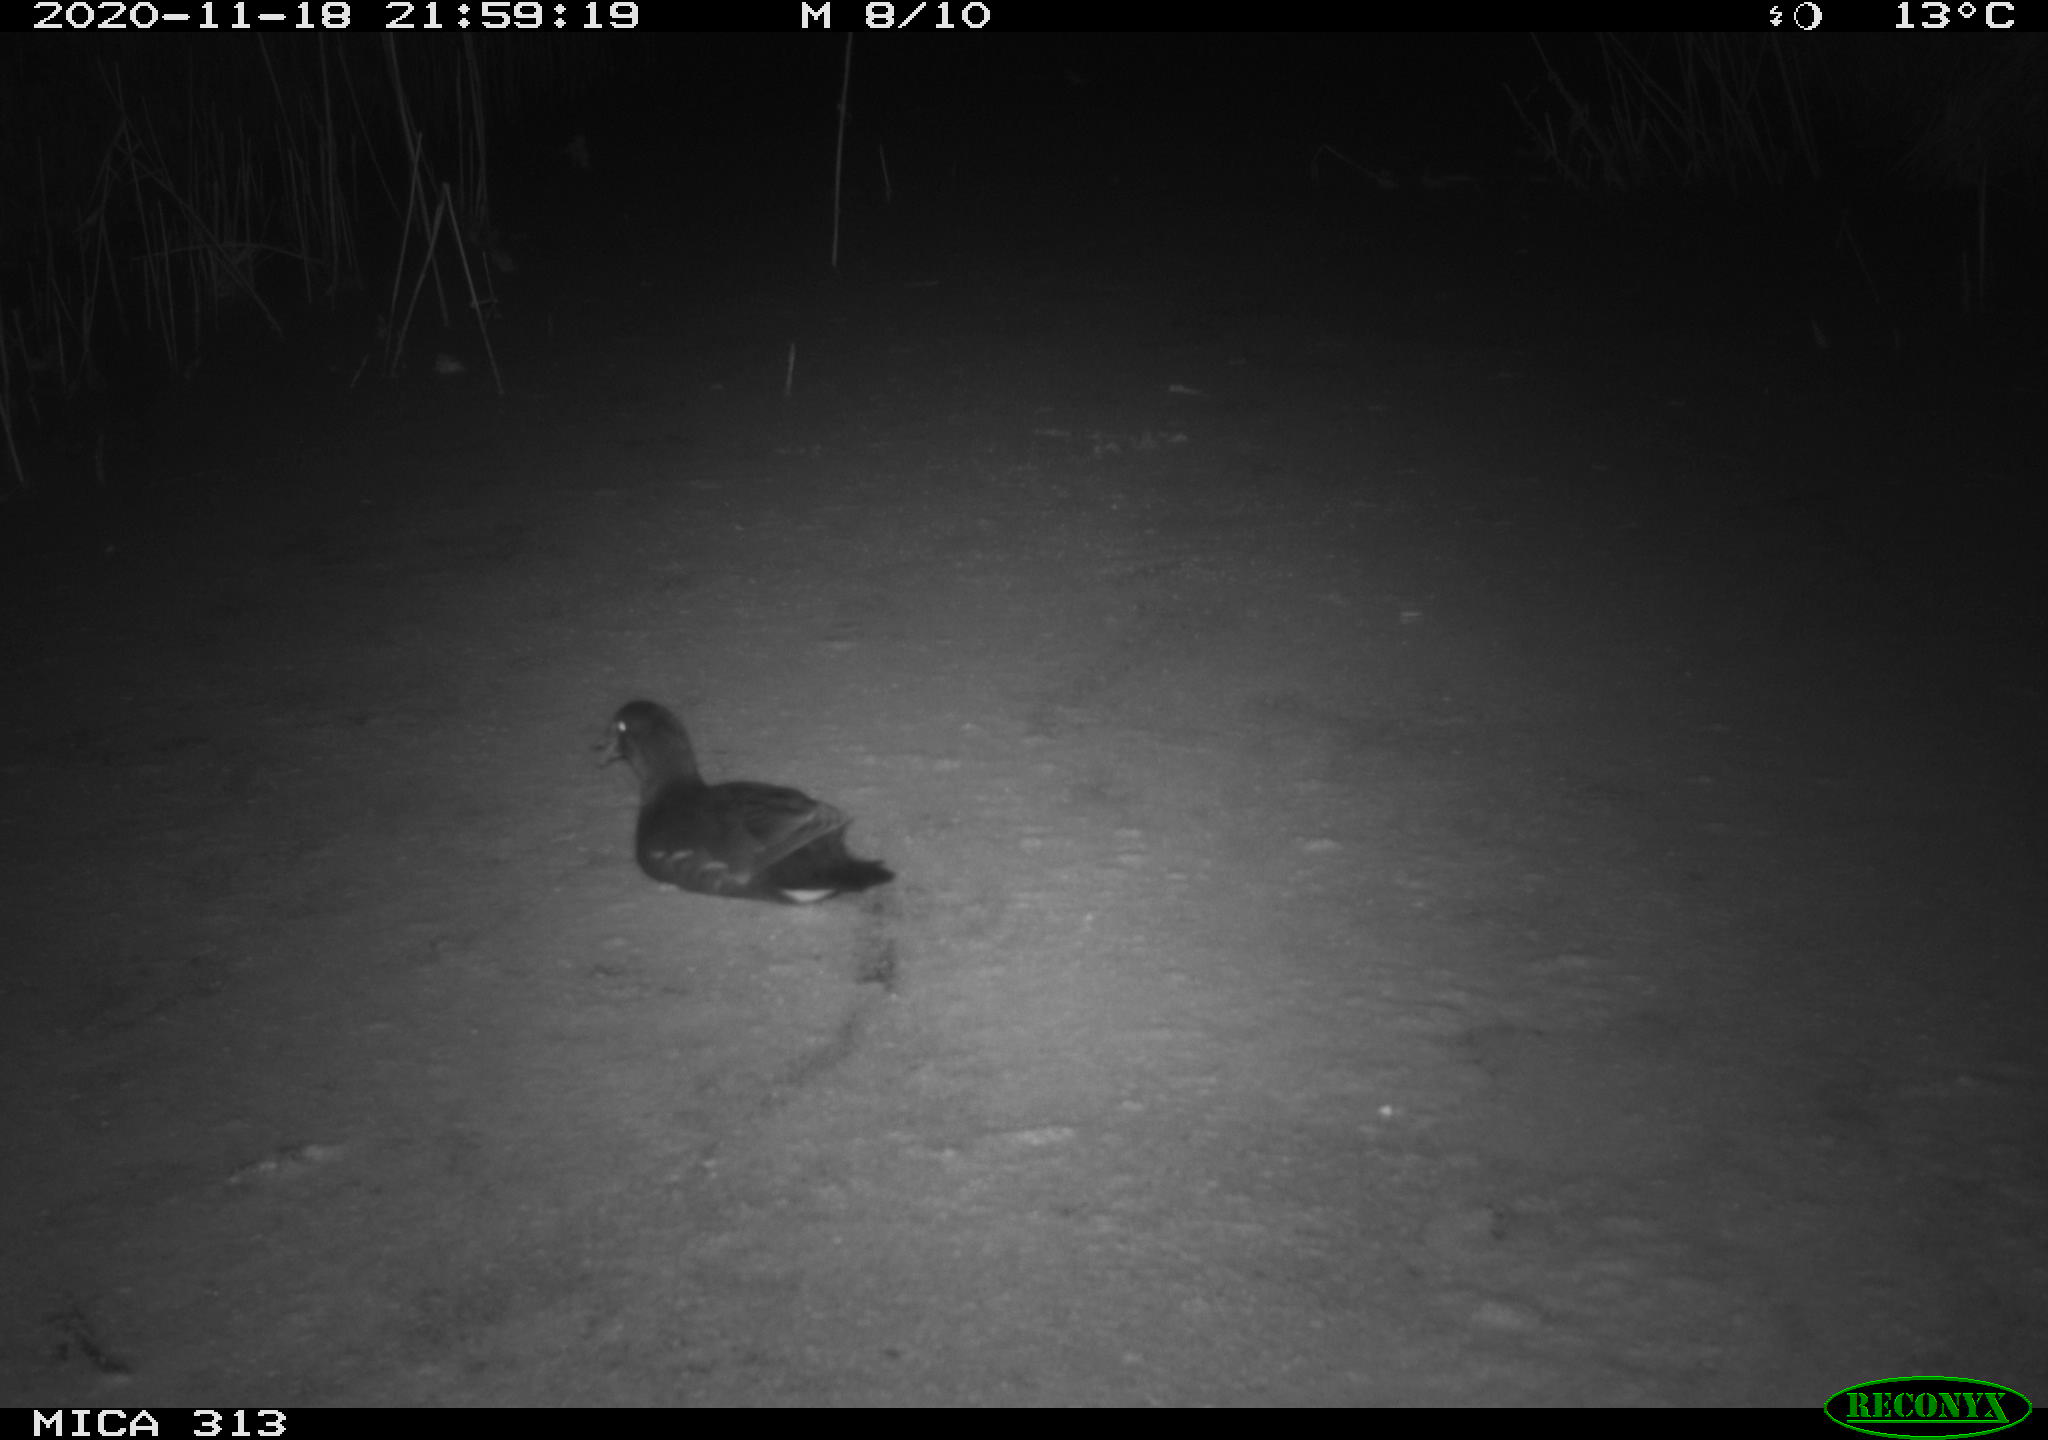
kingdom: Animalia
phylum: Chordata
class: Aves
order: Gruiformes
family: Rallidae
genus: Fulica
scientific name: Fulica atra
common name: Eurasian coot
